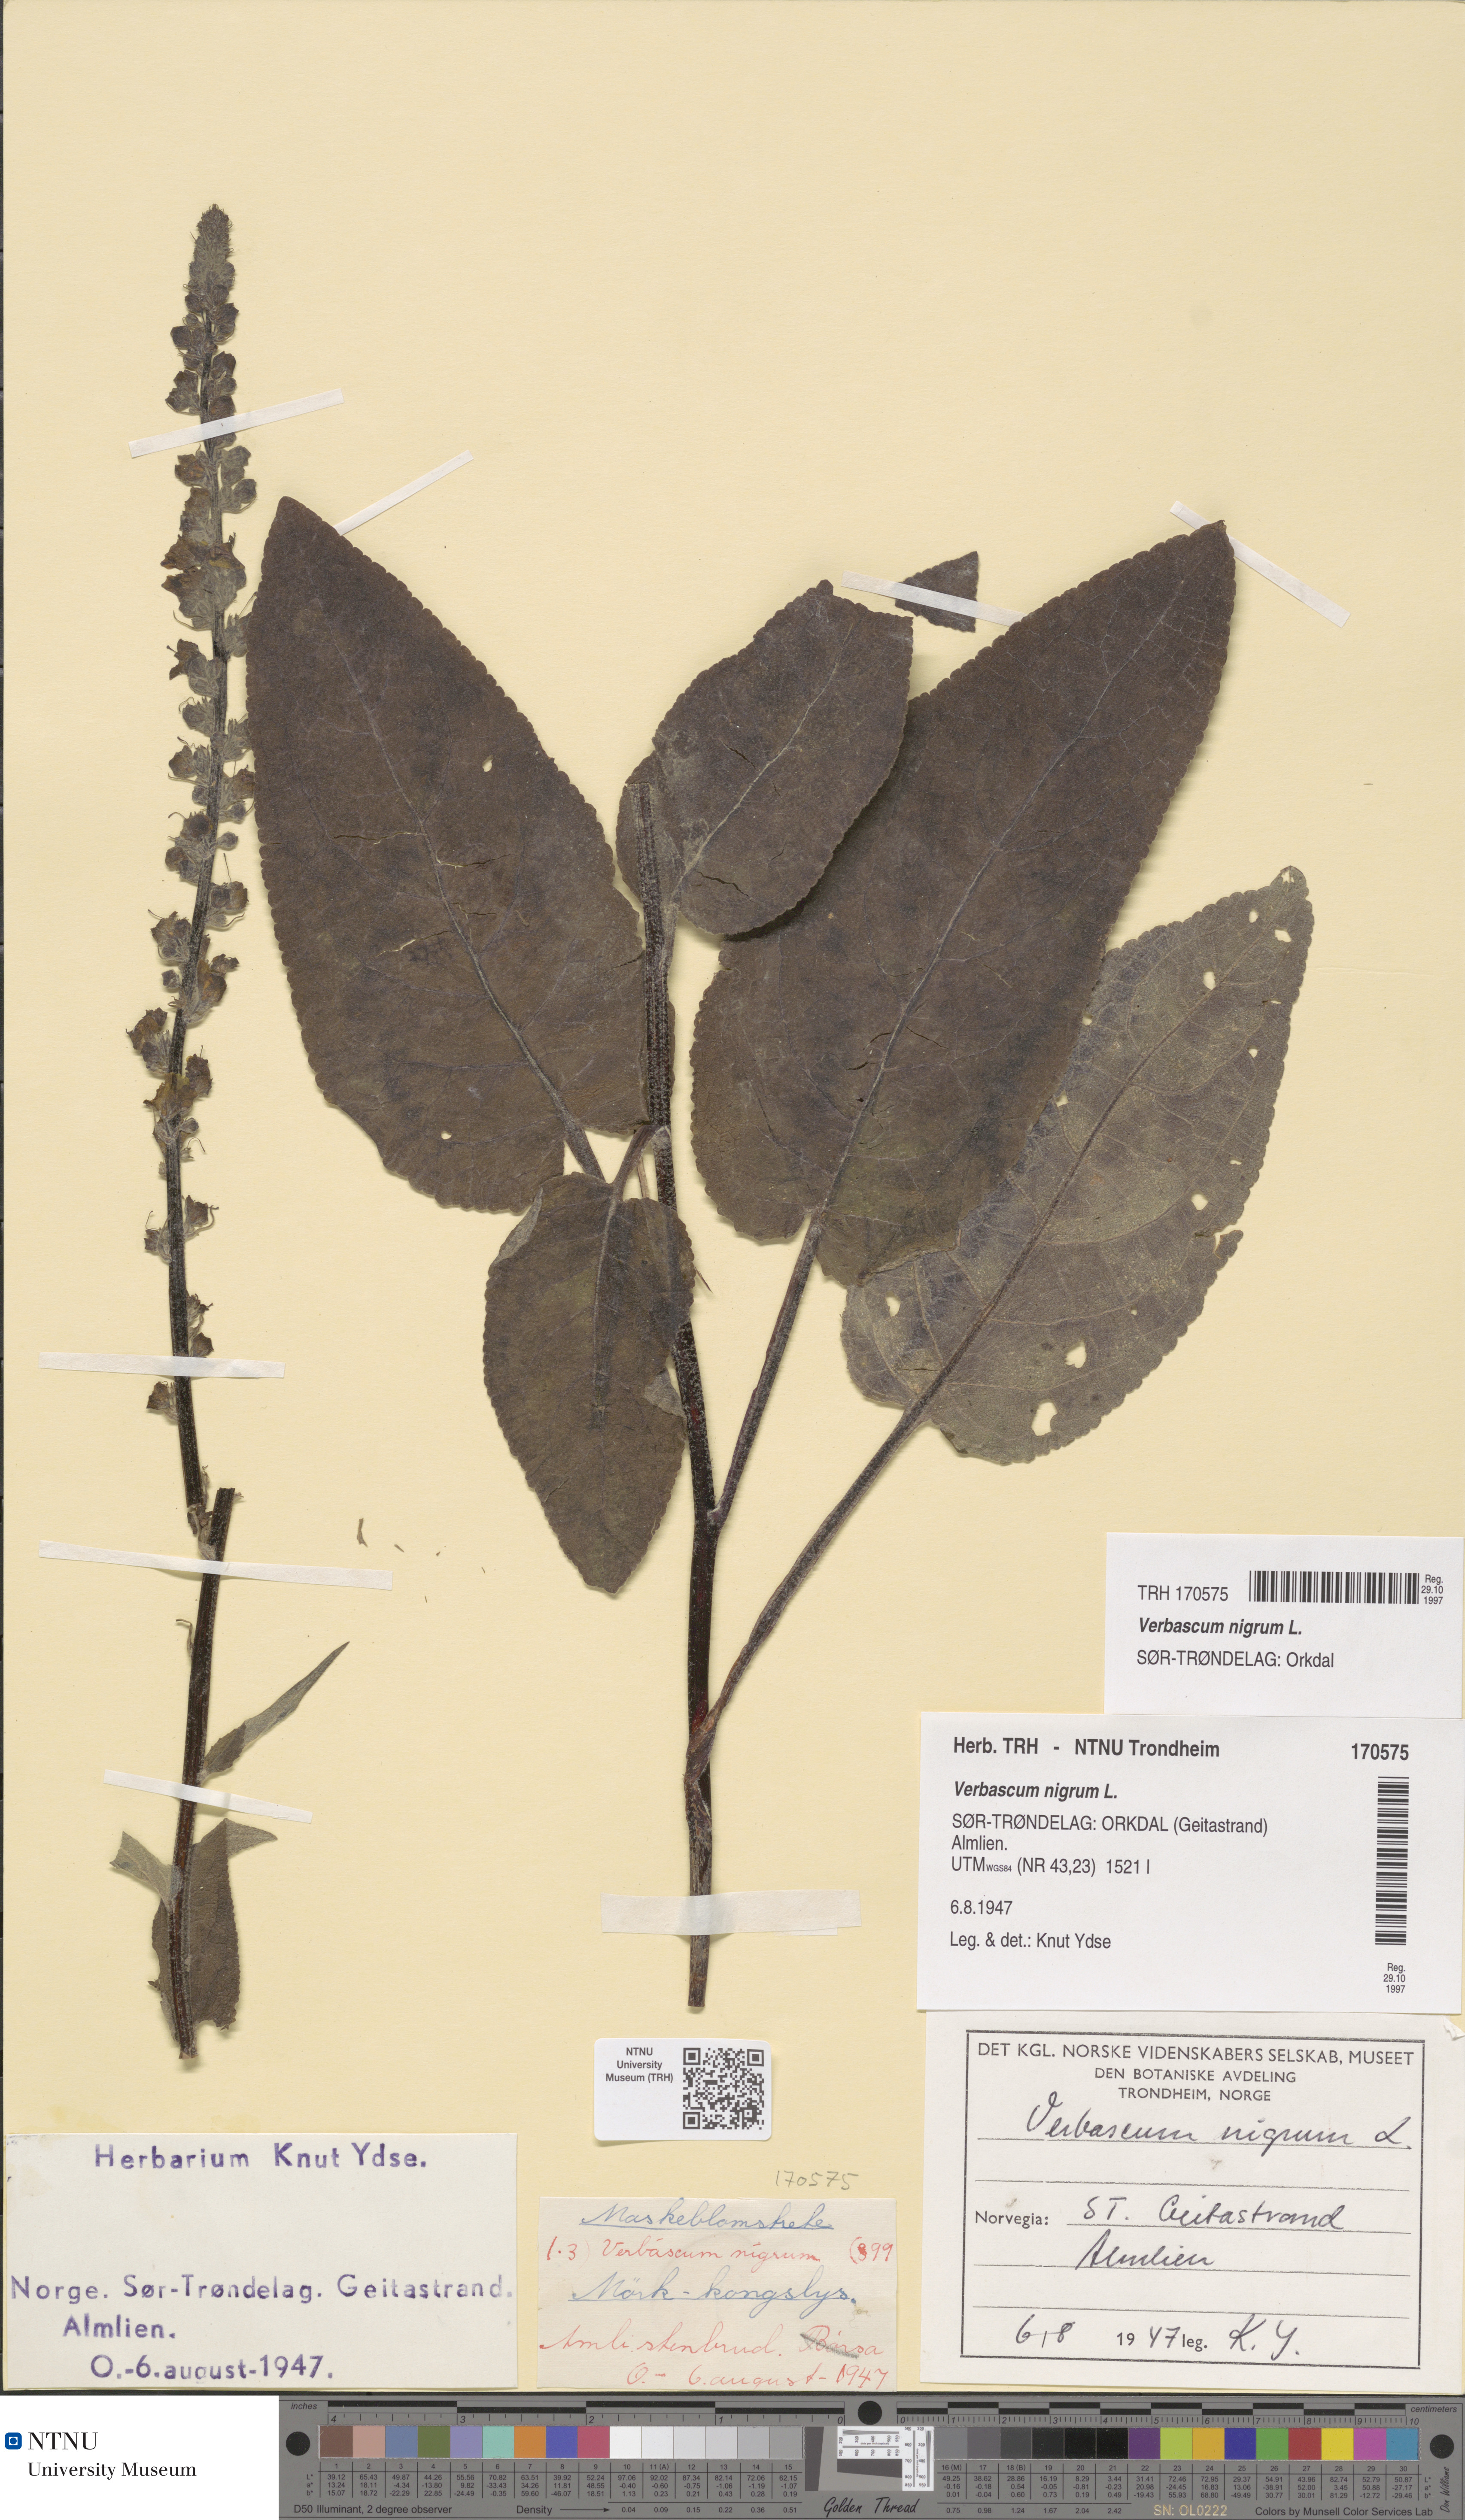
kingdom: Plantae
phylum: Tracheophyta
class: Magnoliopsida
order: Lamiales
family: Scrophulariaceae
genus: Verbascum
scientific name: Verbascum nigrum
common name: Dark mullein
